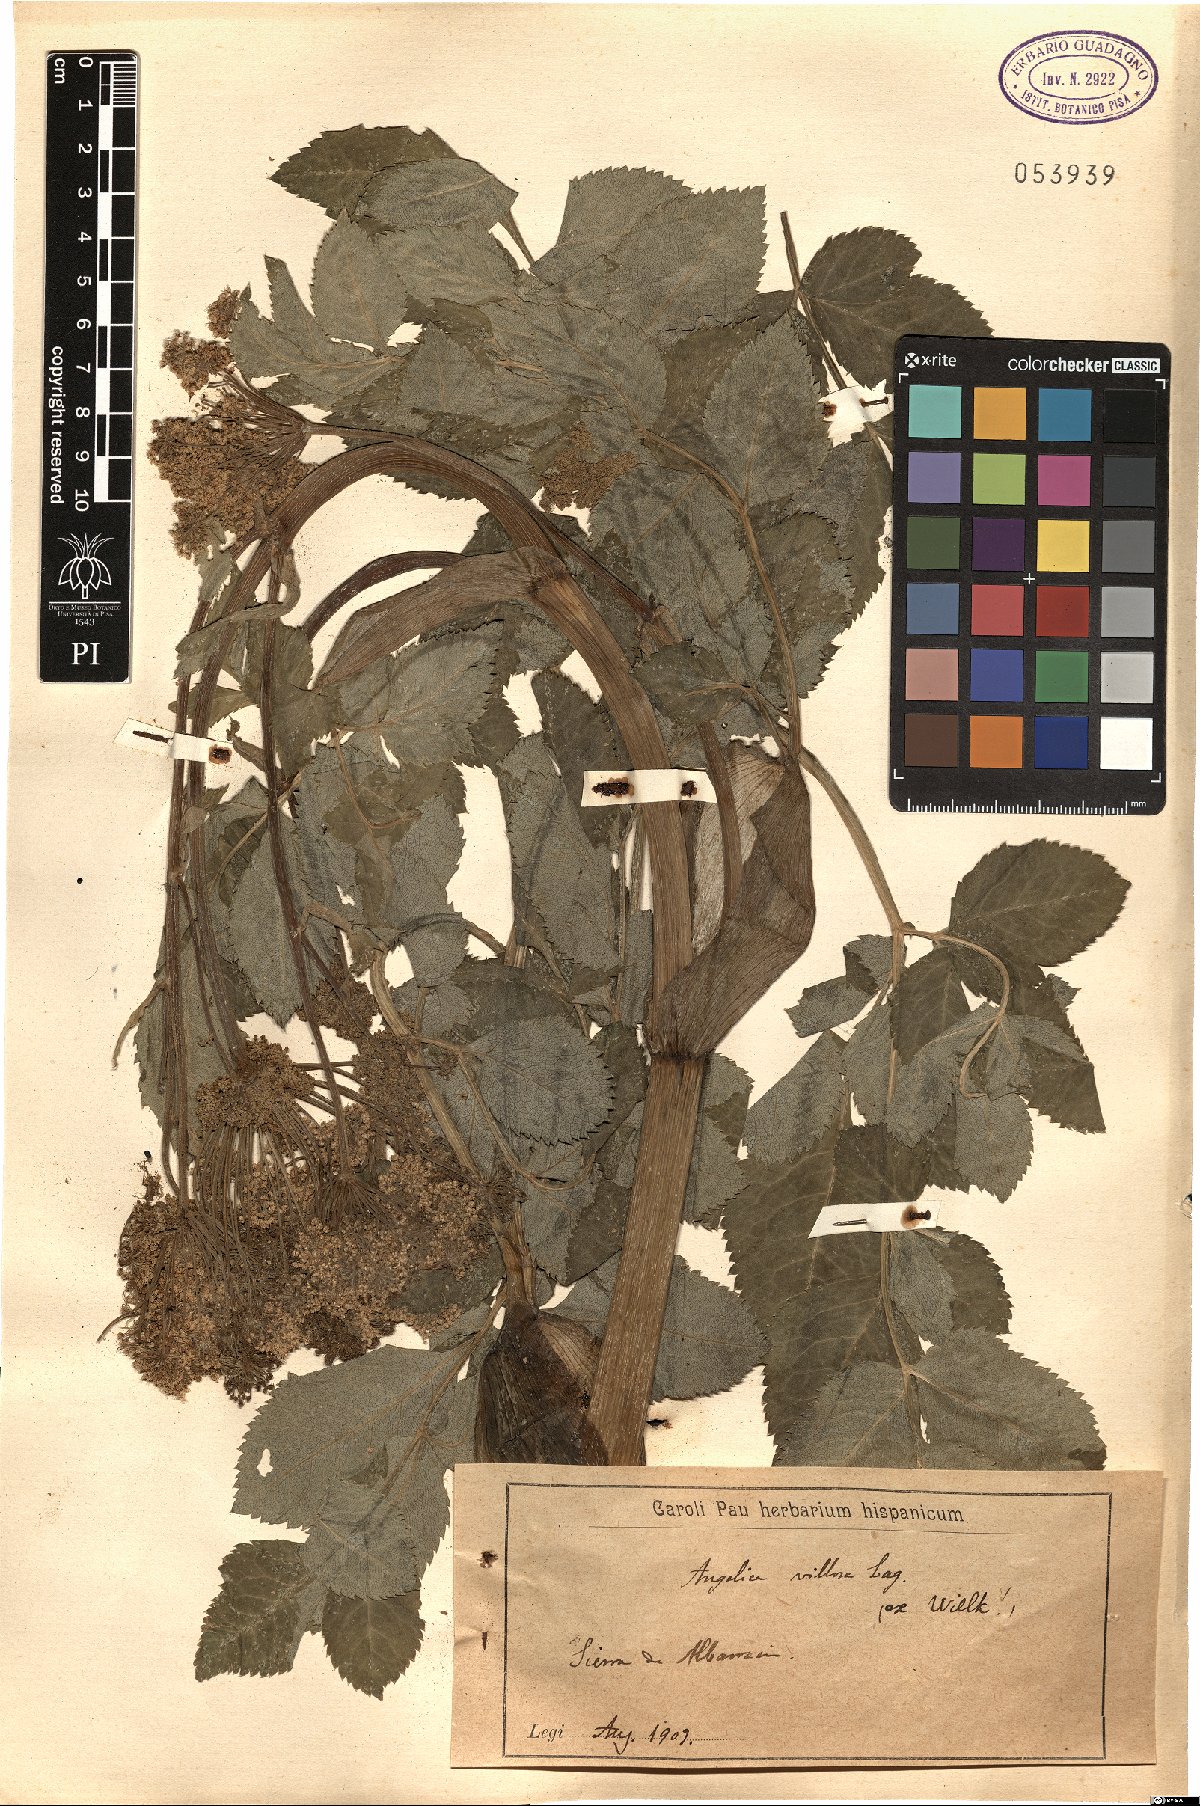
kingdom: Plantae
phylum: Tracheophyta
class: Magnoliopsida
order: Apiales
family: Apiaceae
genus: Angelica
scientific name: Angelica sylvestris
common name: Wild angelica
